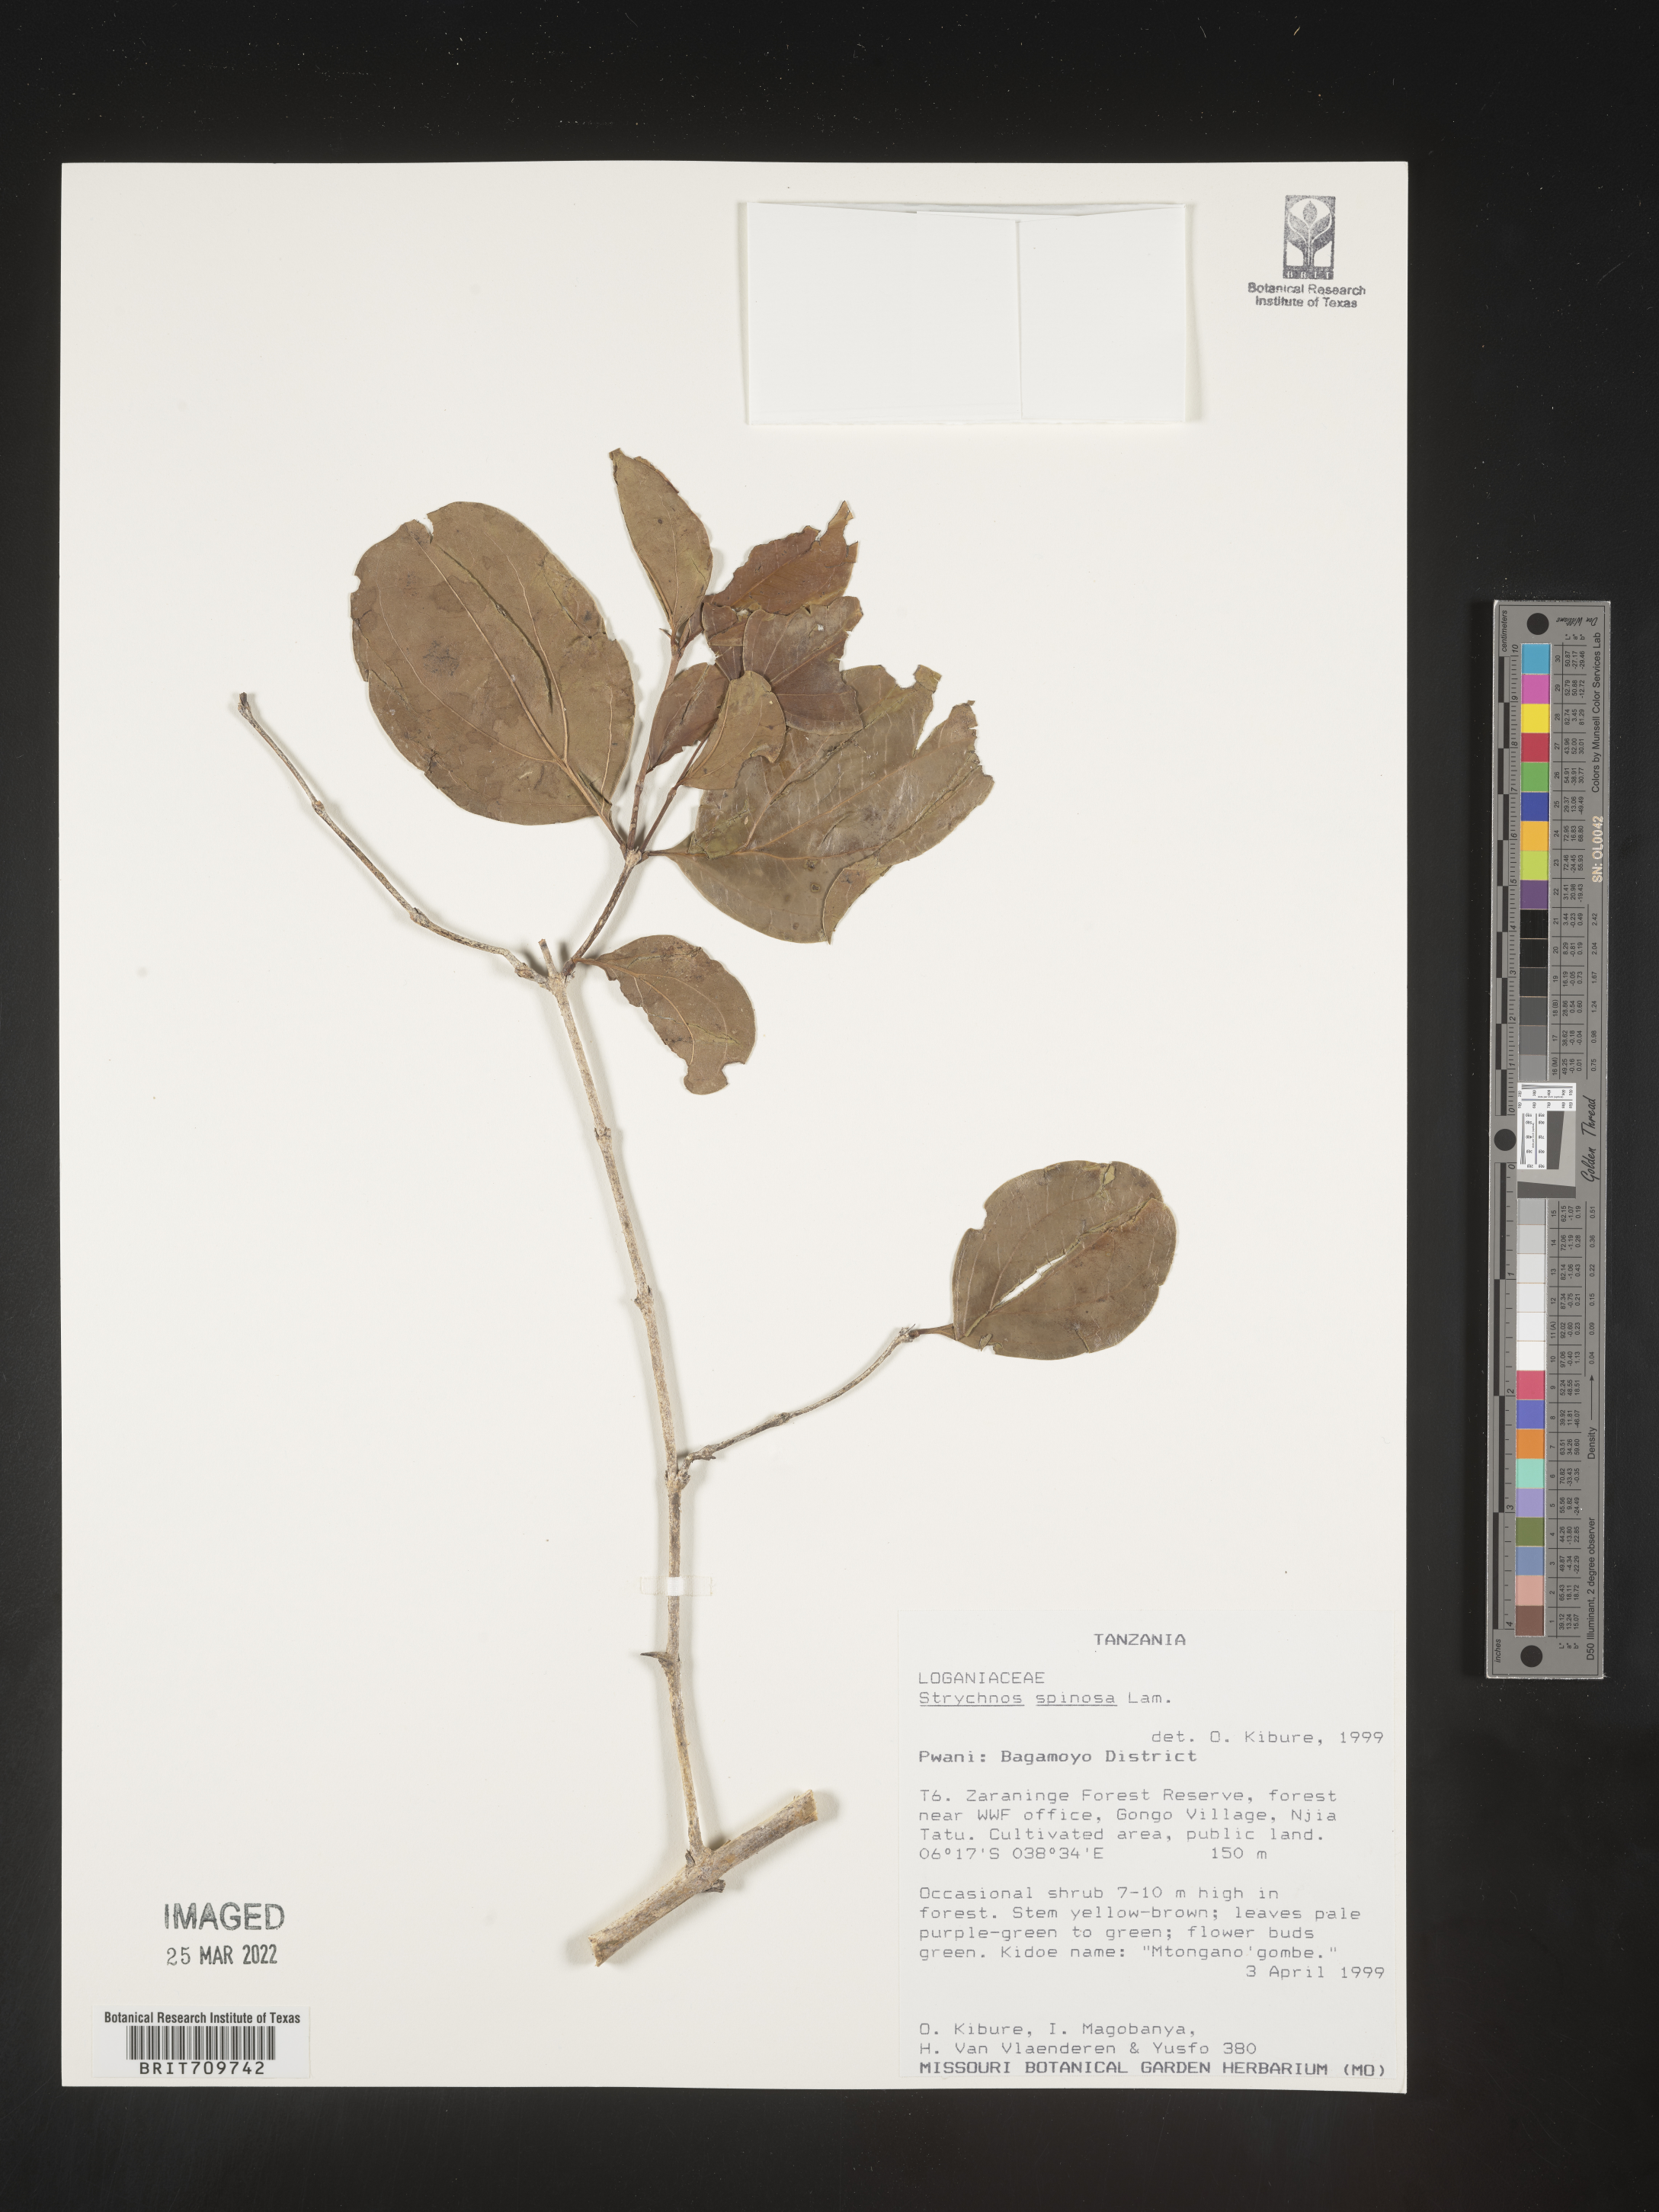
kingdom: Plantae
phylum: Tracheophyta
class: Magnoliopsida
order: Gentianales
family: Loganiaceae
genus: Strychnos
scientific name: Strychnos
